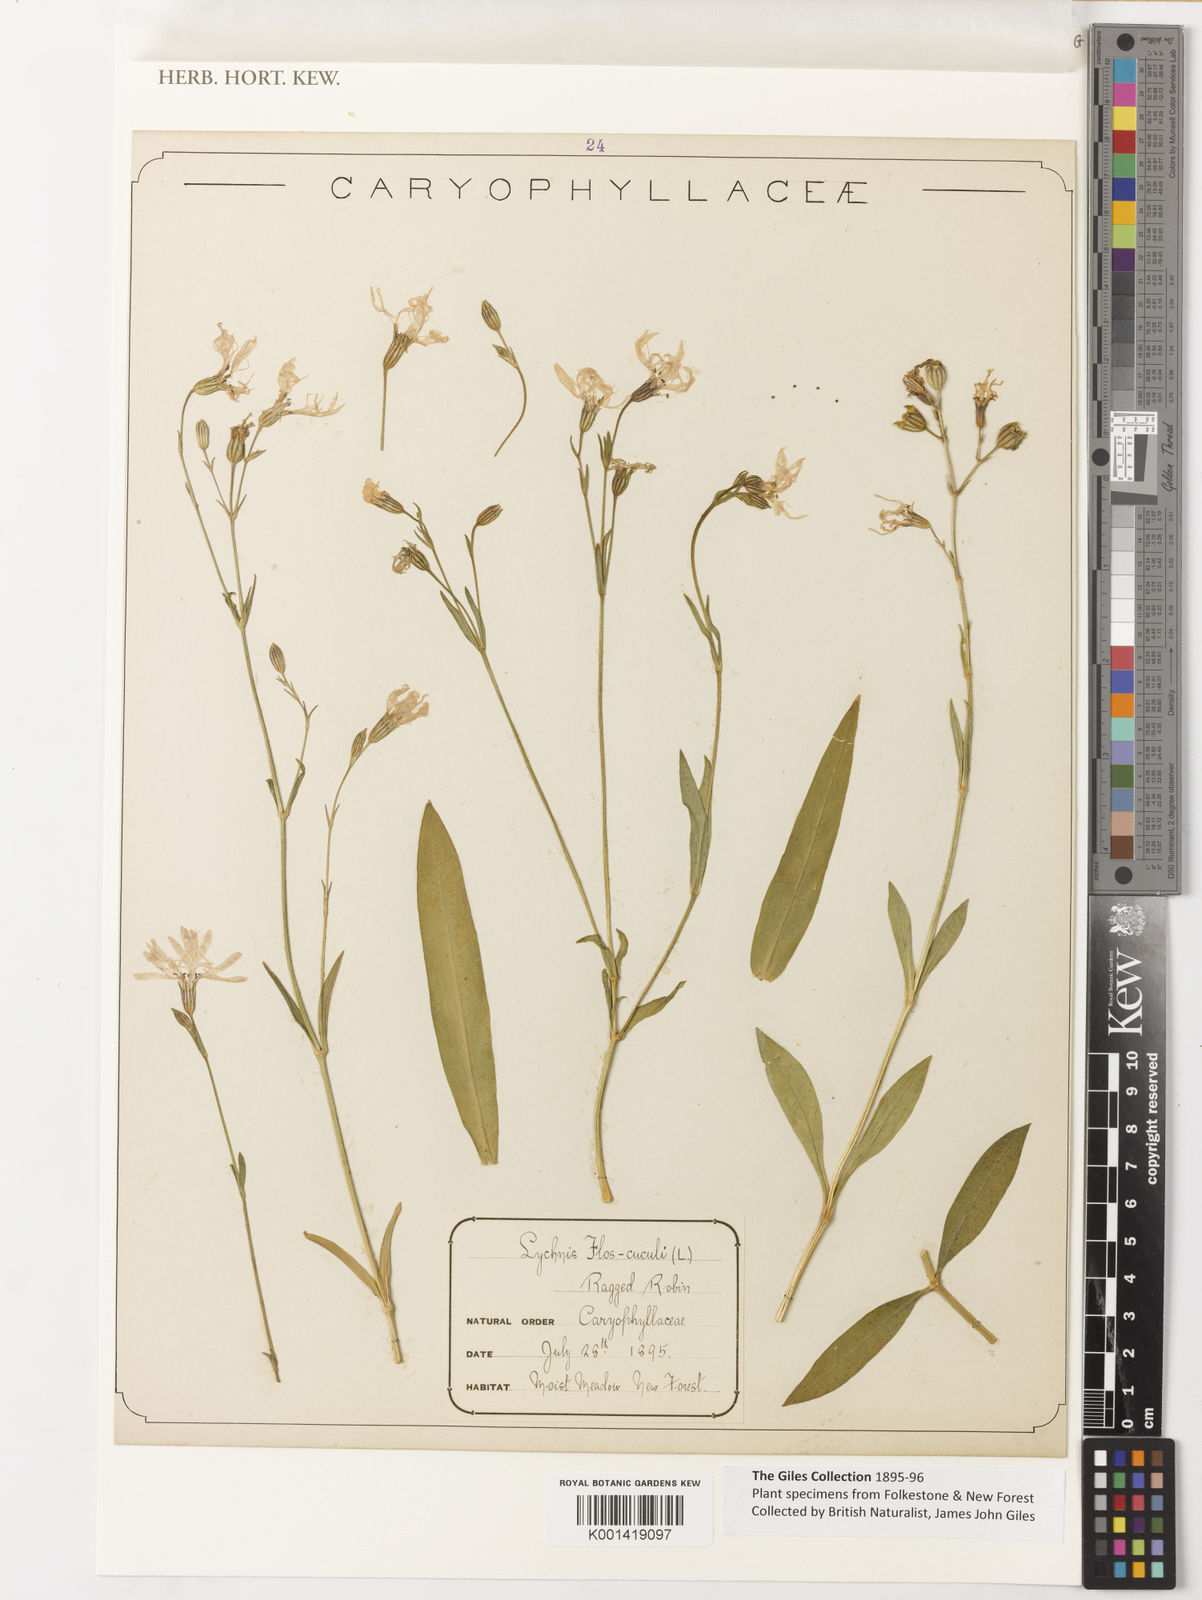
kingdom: Plantae
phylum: Tracheophyta
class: Magnoliopsida
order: Caryophyllales
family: Caryophyllaceae
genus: Silene
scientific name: Silene flos-cuculi
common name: Ragged-robin
